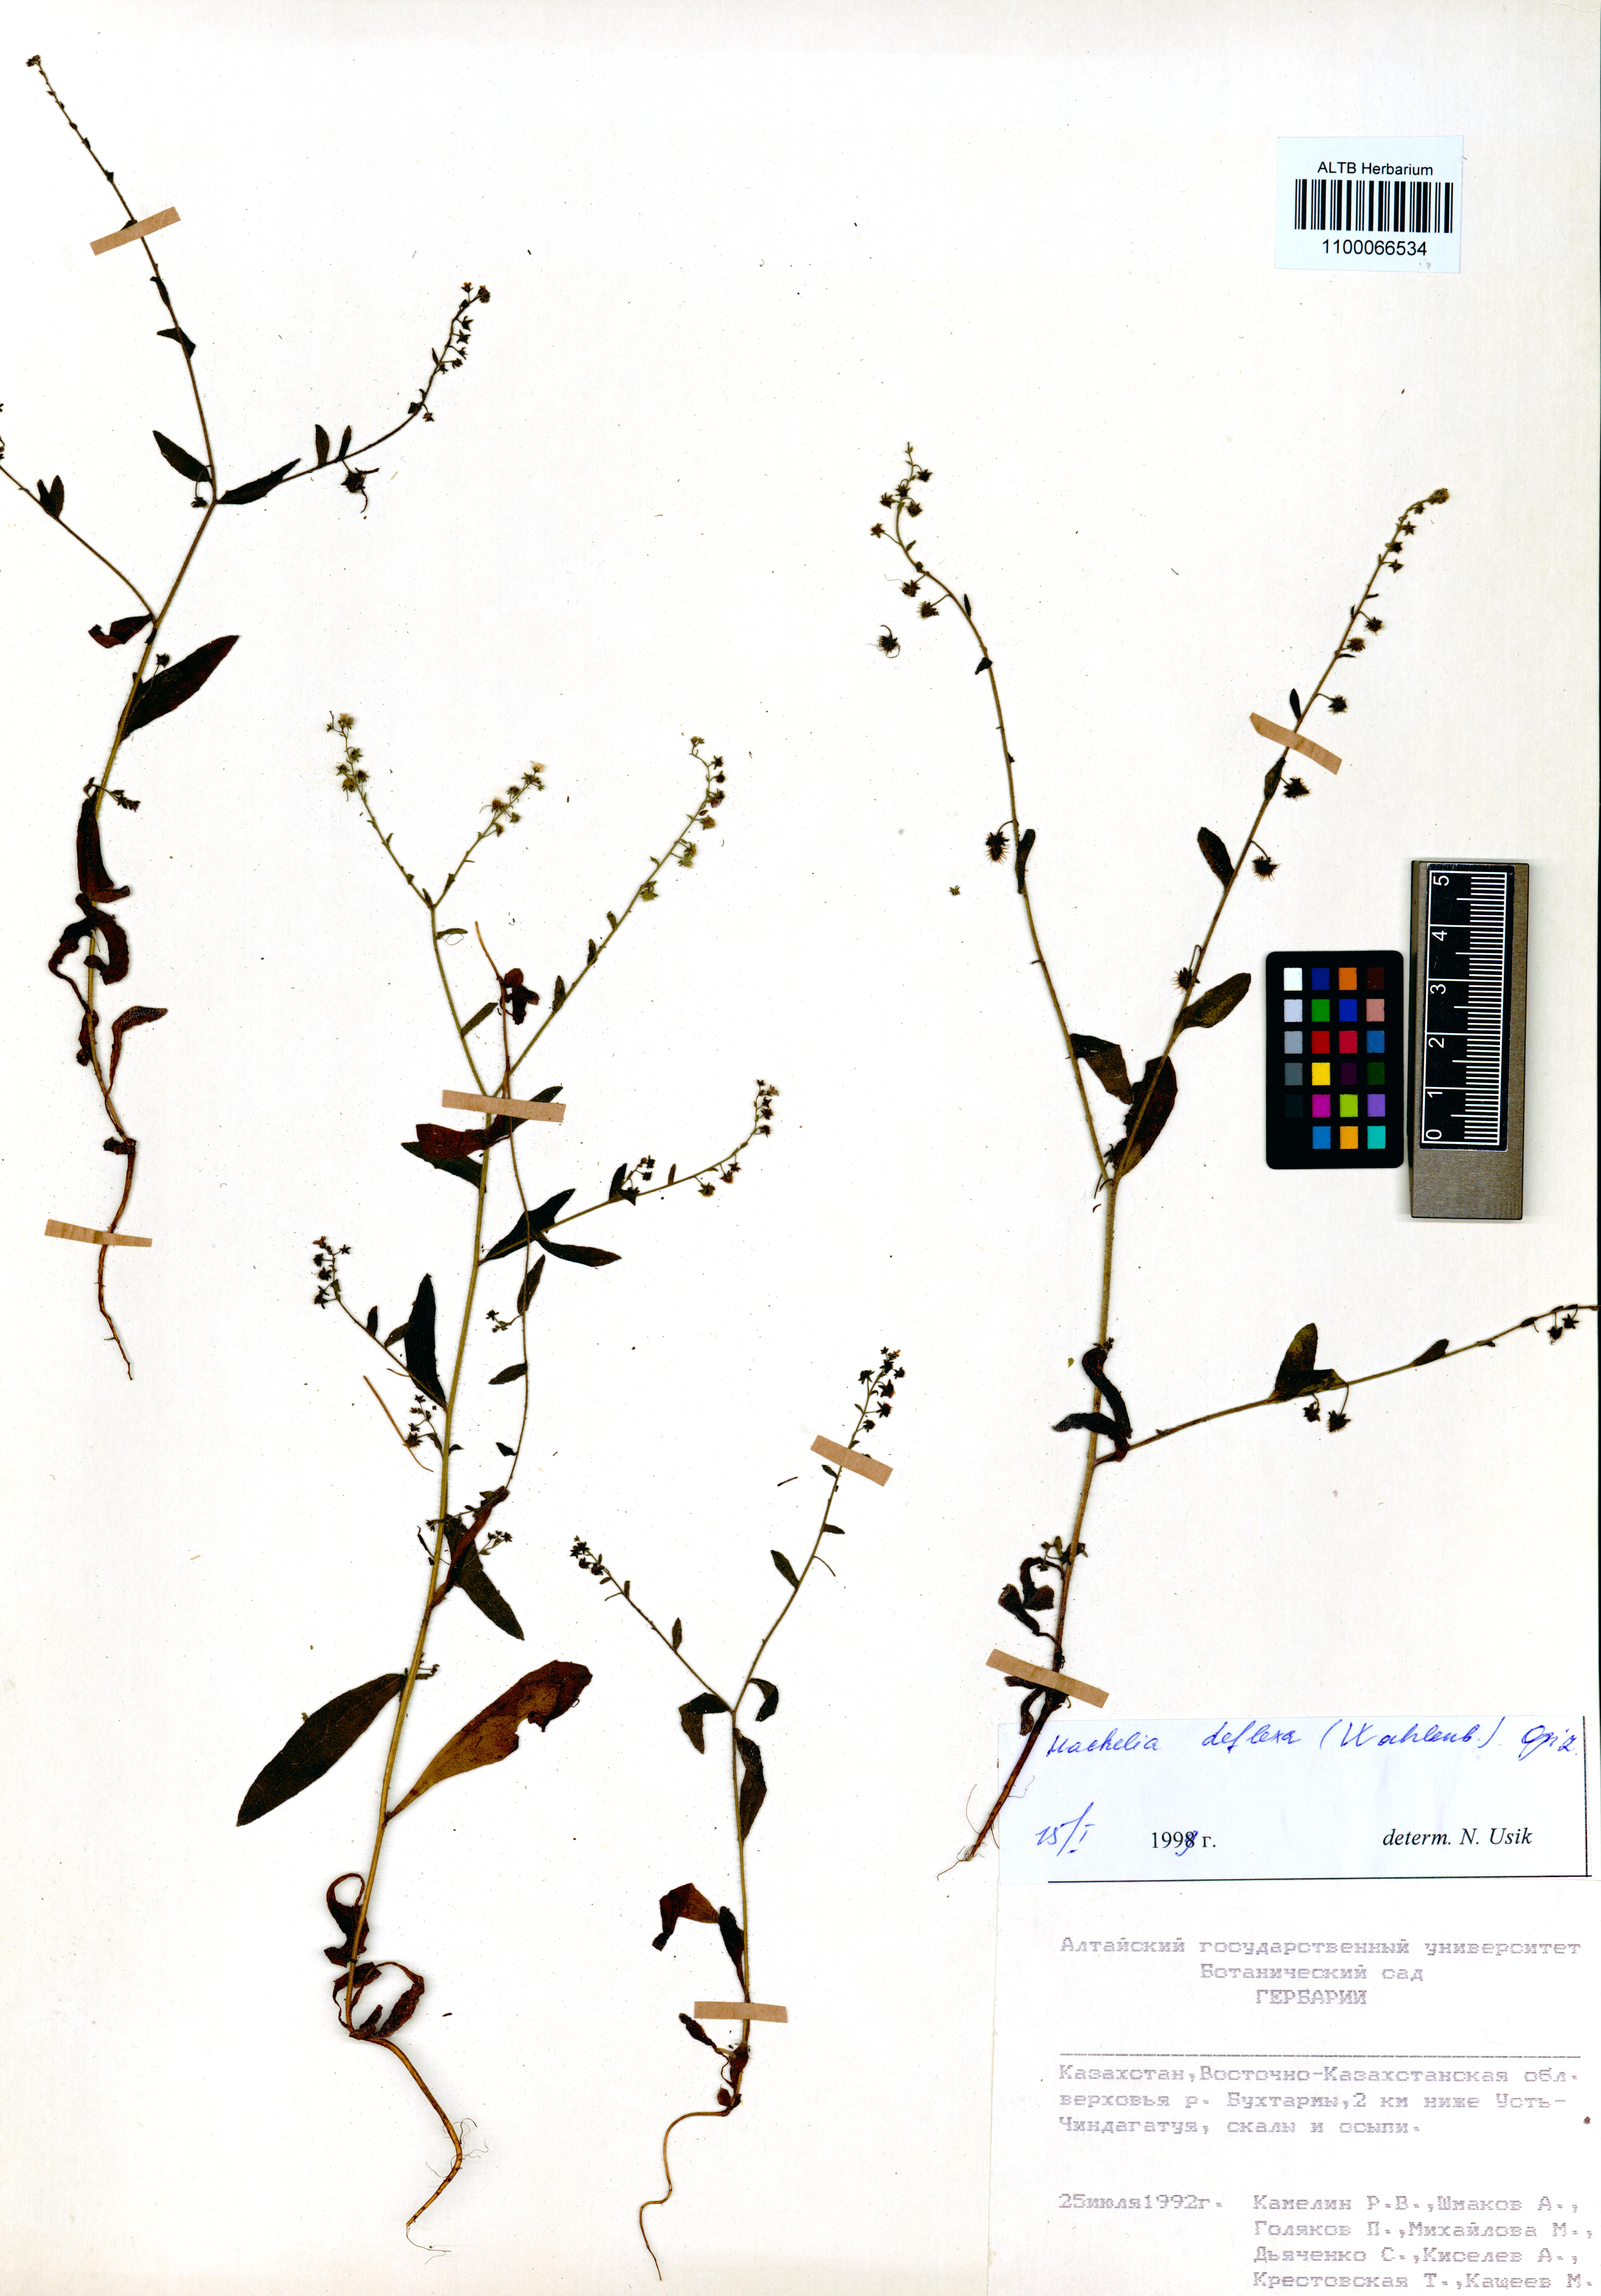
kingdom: Plantae
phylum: Tracheophyta
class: Magnoliopsida
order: Boraginales
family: Boraginaceae
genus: Hackelia
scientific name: Hackelia deflexa
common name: Nodding stickseed
